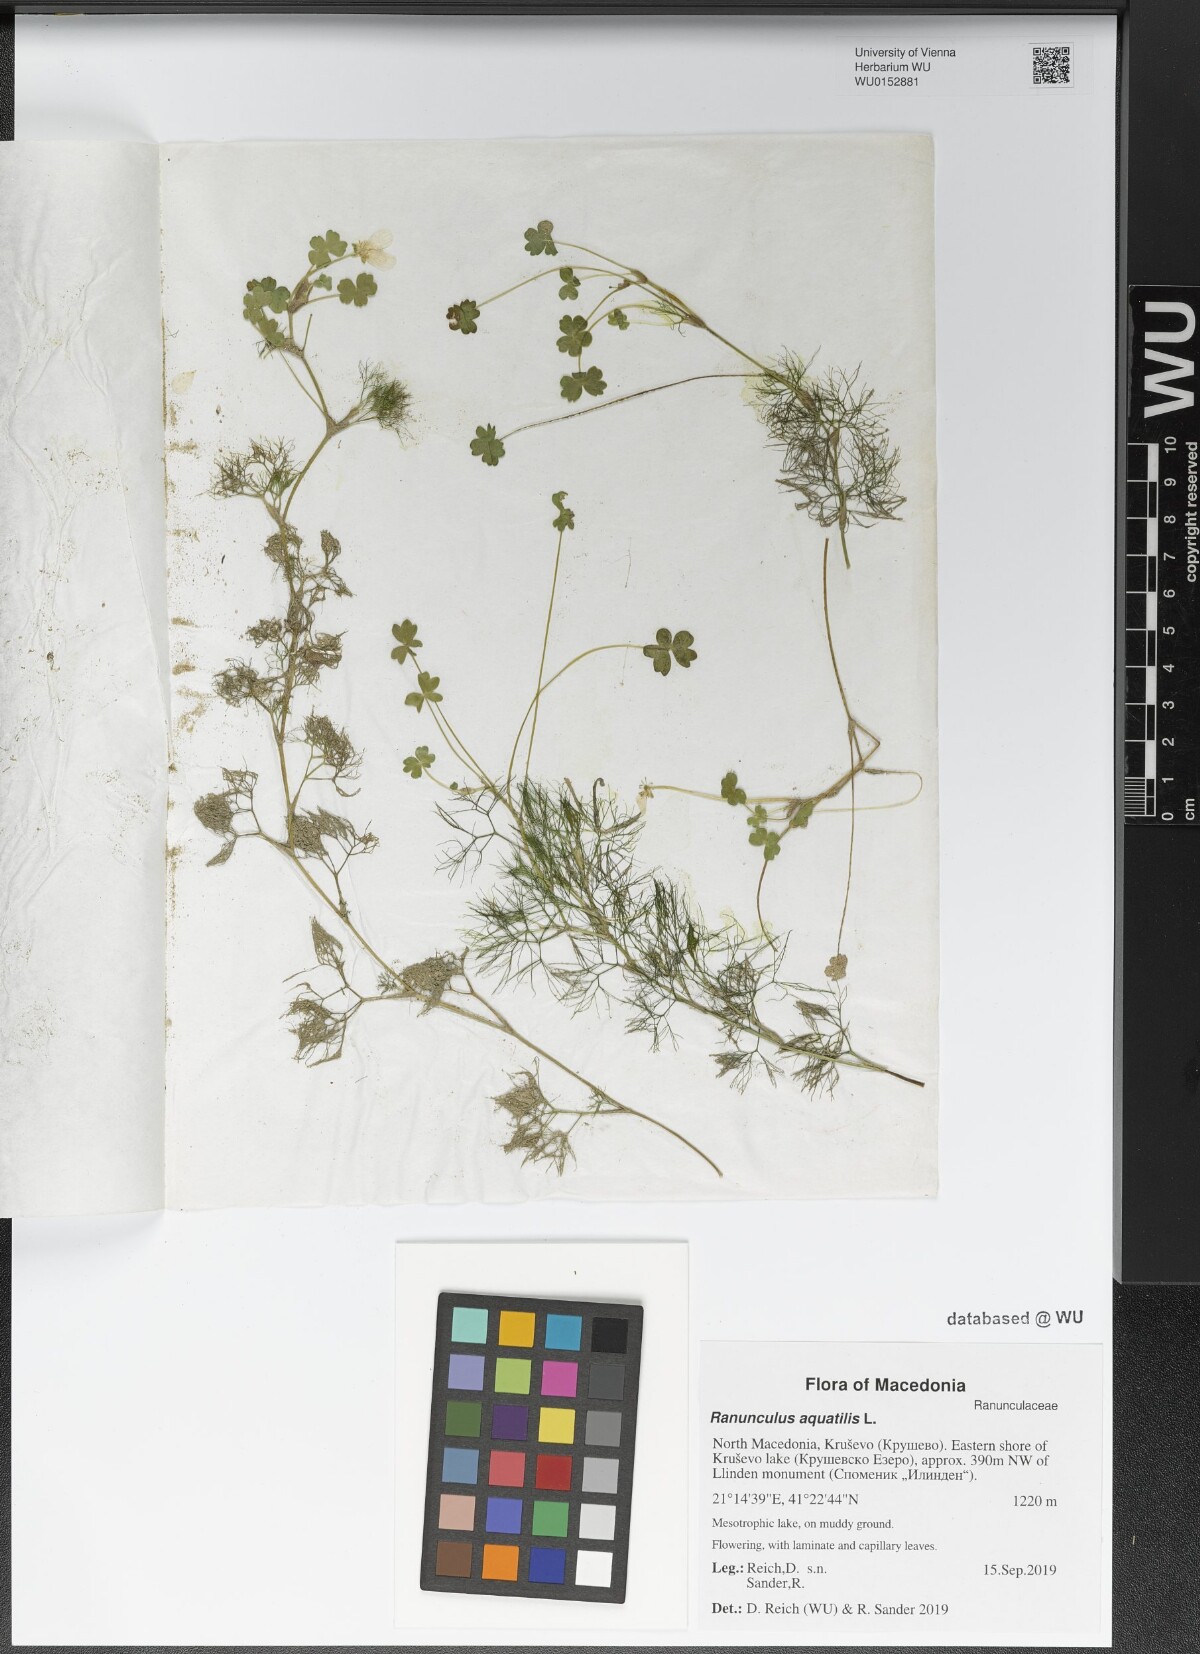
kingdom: Plantae
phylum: Tracheophyta
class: Magnoliopsida
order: Ranunculales
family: Ranunculaceae
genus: Ranunculus
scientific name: Ranunculus aquatilis
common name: Common water-crowfoot
